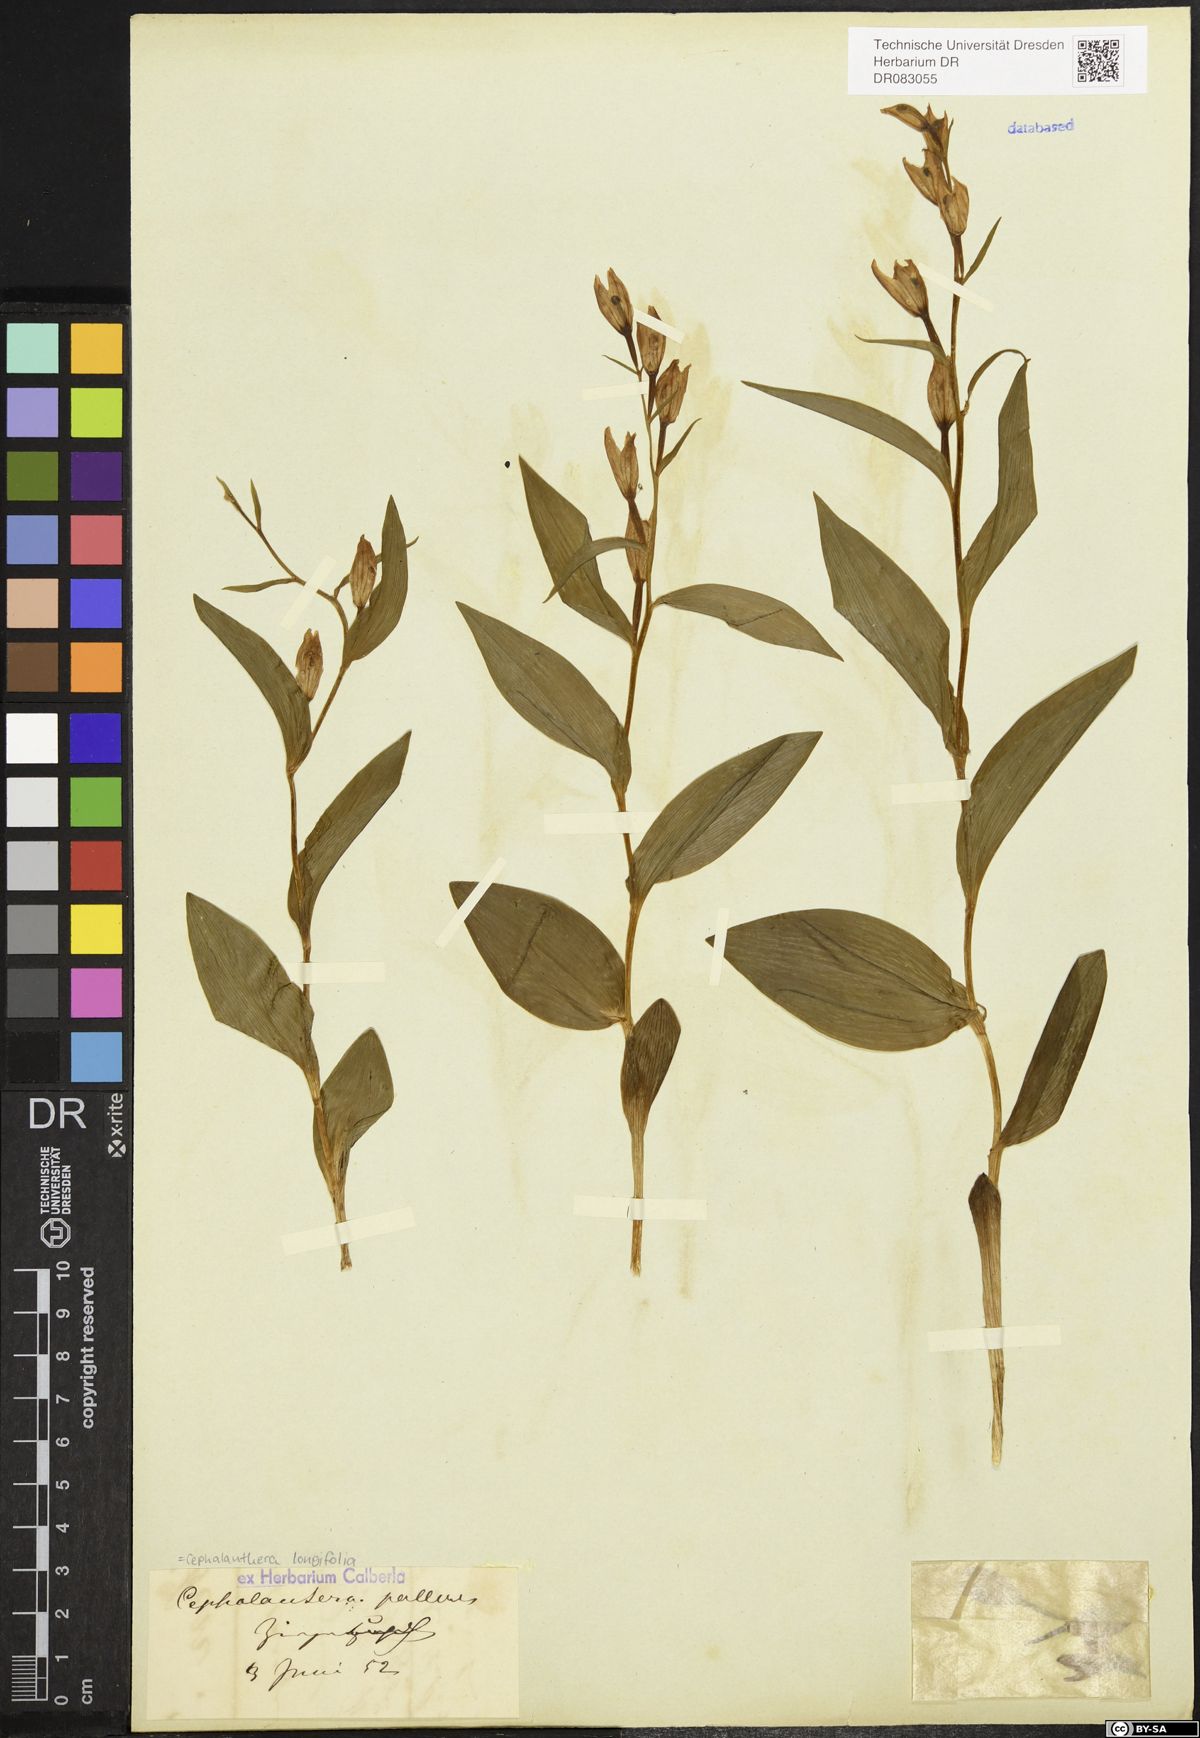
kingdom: Plantae
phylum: Tracheophyta
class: Liliopsida
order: Asparagales
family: Orchidaceae
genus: Cephalanthera
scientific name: Cephalanthera longifolia
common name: Narrow-leaved helleborine
